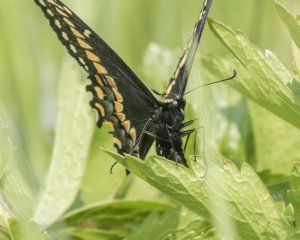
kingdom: Animalia
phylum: Arthropoda
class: Insecta
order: Lepidoptera
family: Papilionidae
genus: Papilio
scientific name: Papilio brevicauda
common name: Short-tailed Swallowtail
